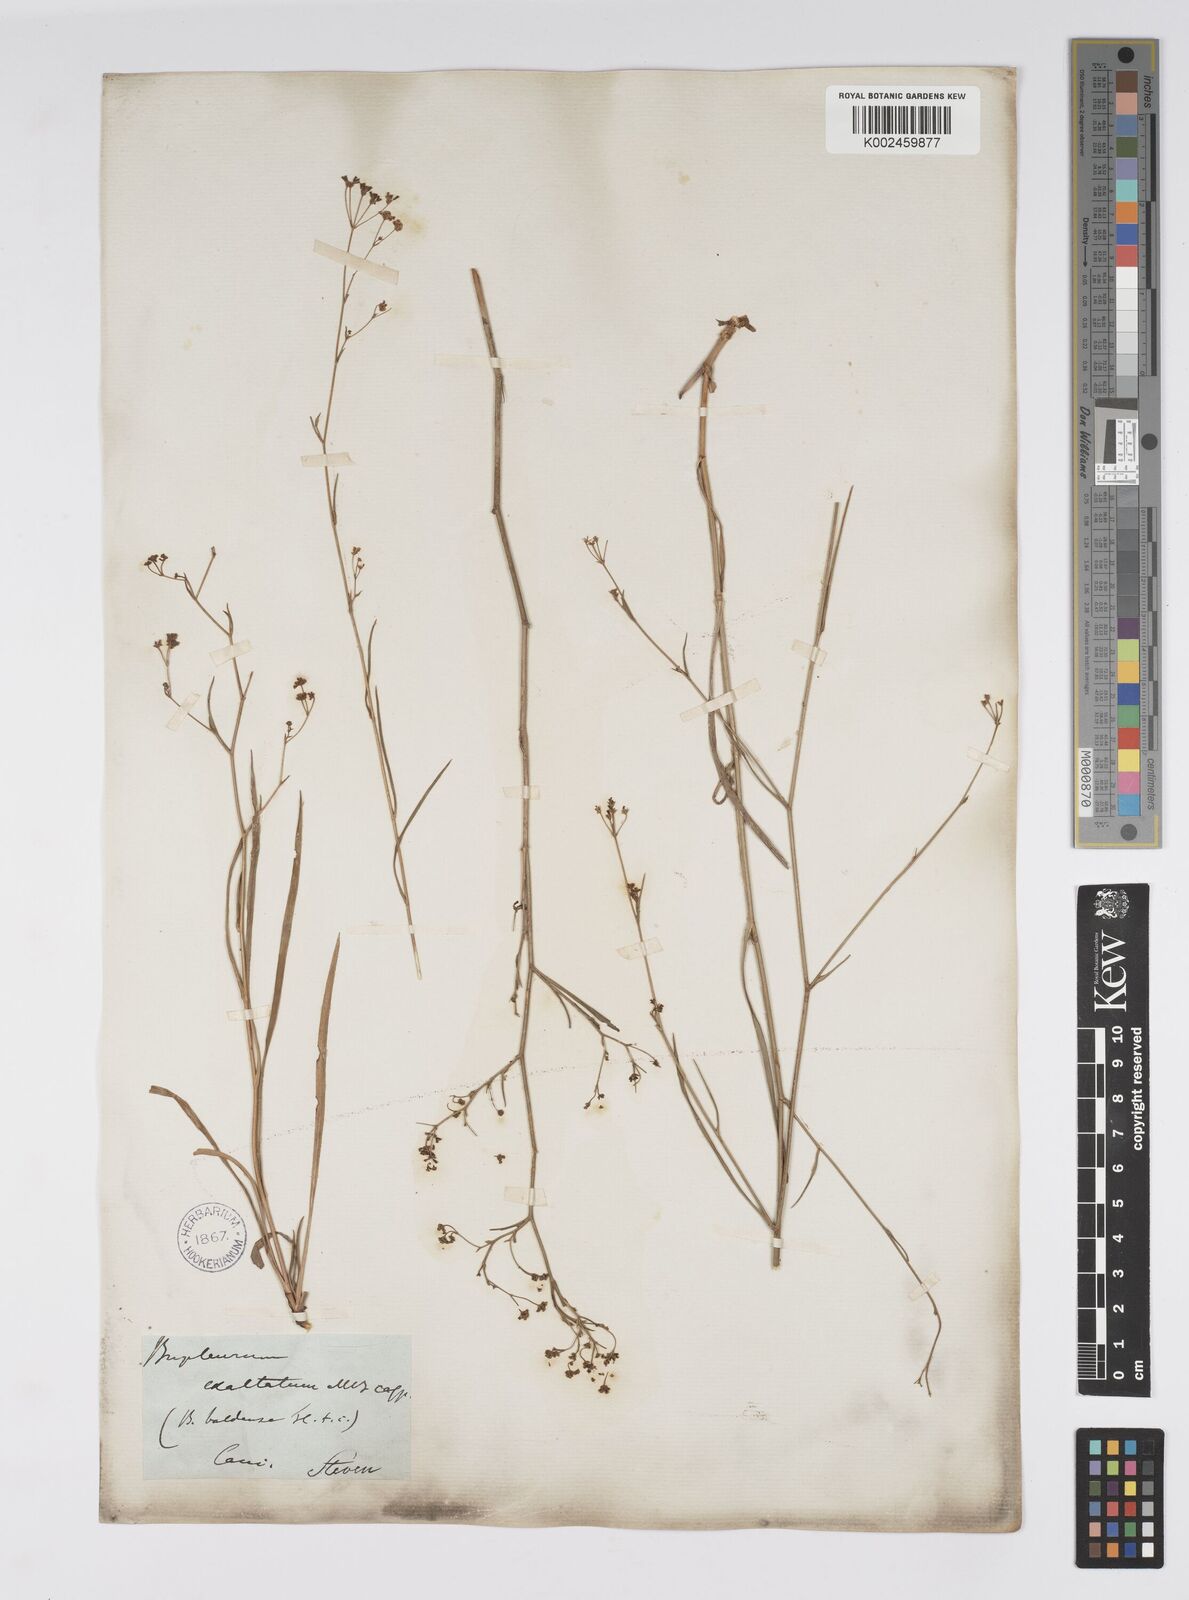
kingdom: Plantae
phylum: Tracheophyta
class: Magnoliopsida
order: Apiales
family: Apiaceae
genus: Bupleurum
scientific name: Bupleurum falcatum
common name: Sickle-leaved hare's-ear
